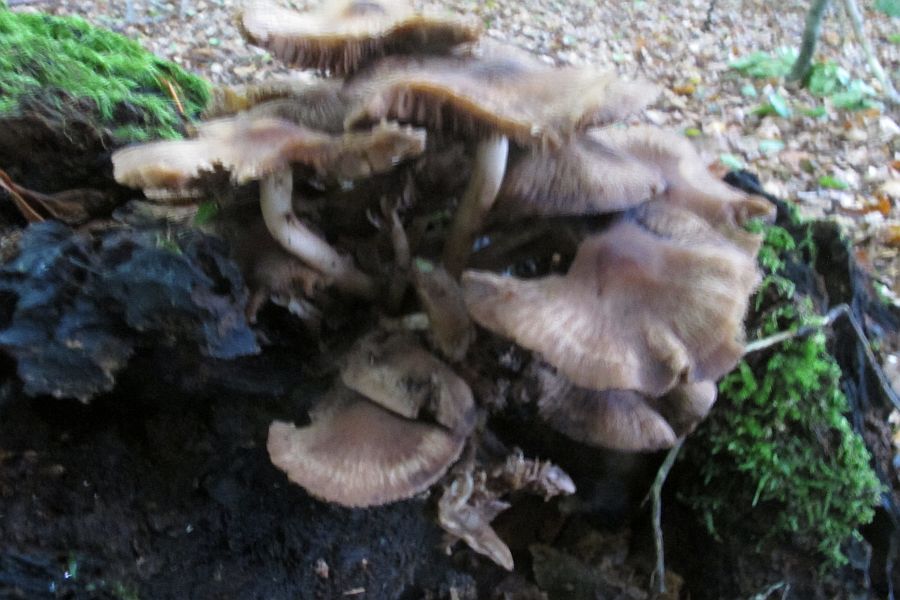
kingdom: Fungi
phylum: Basidiomycota
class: Agaricomycetes
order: Agaricales
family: Psathyrellaceae
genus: Psathyrella
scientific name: Psathyrella piluliformis
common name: lysstokket mørkhat
